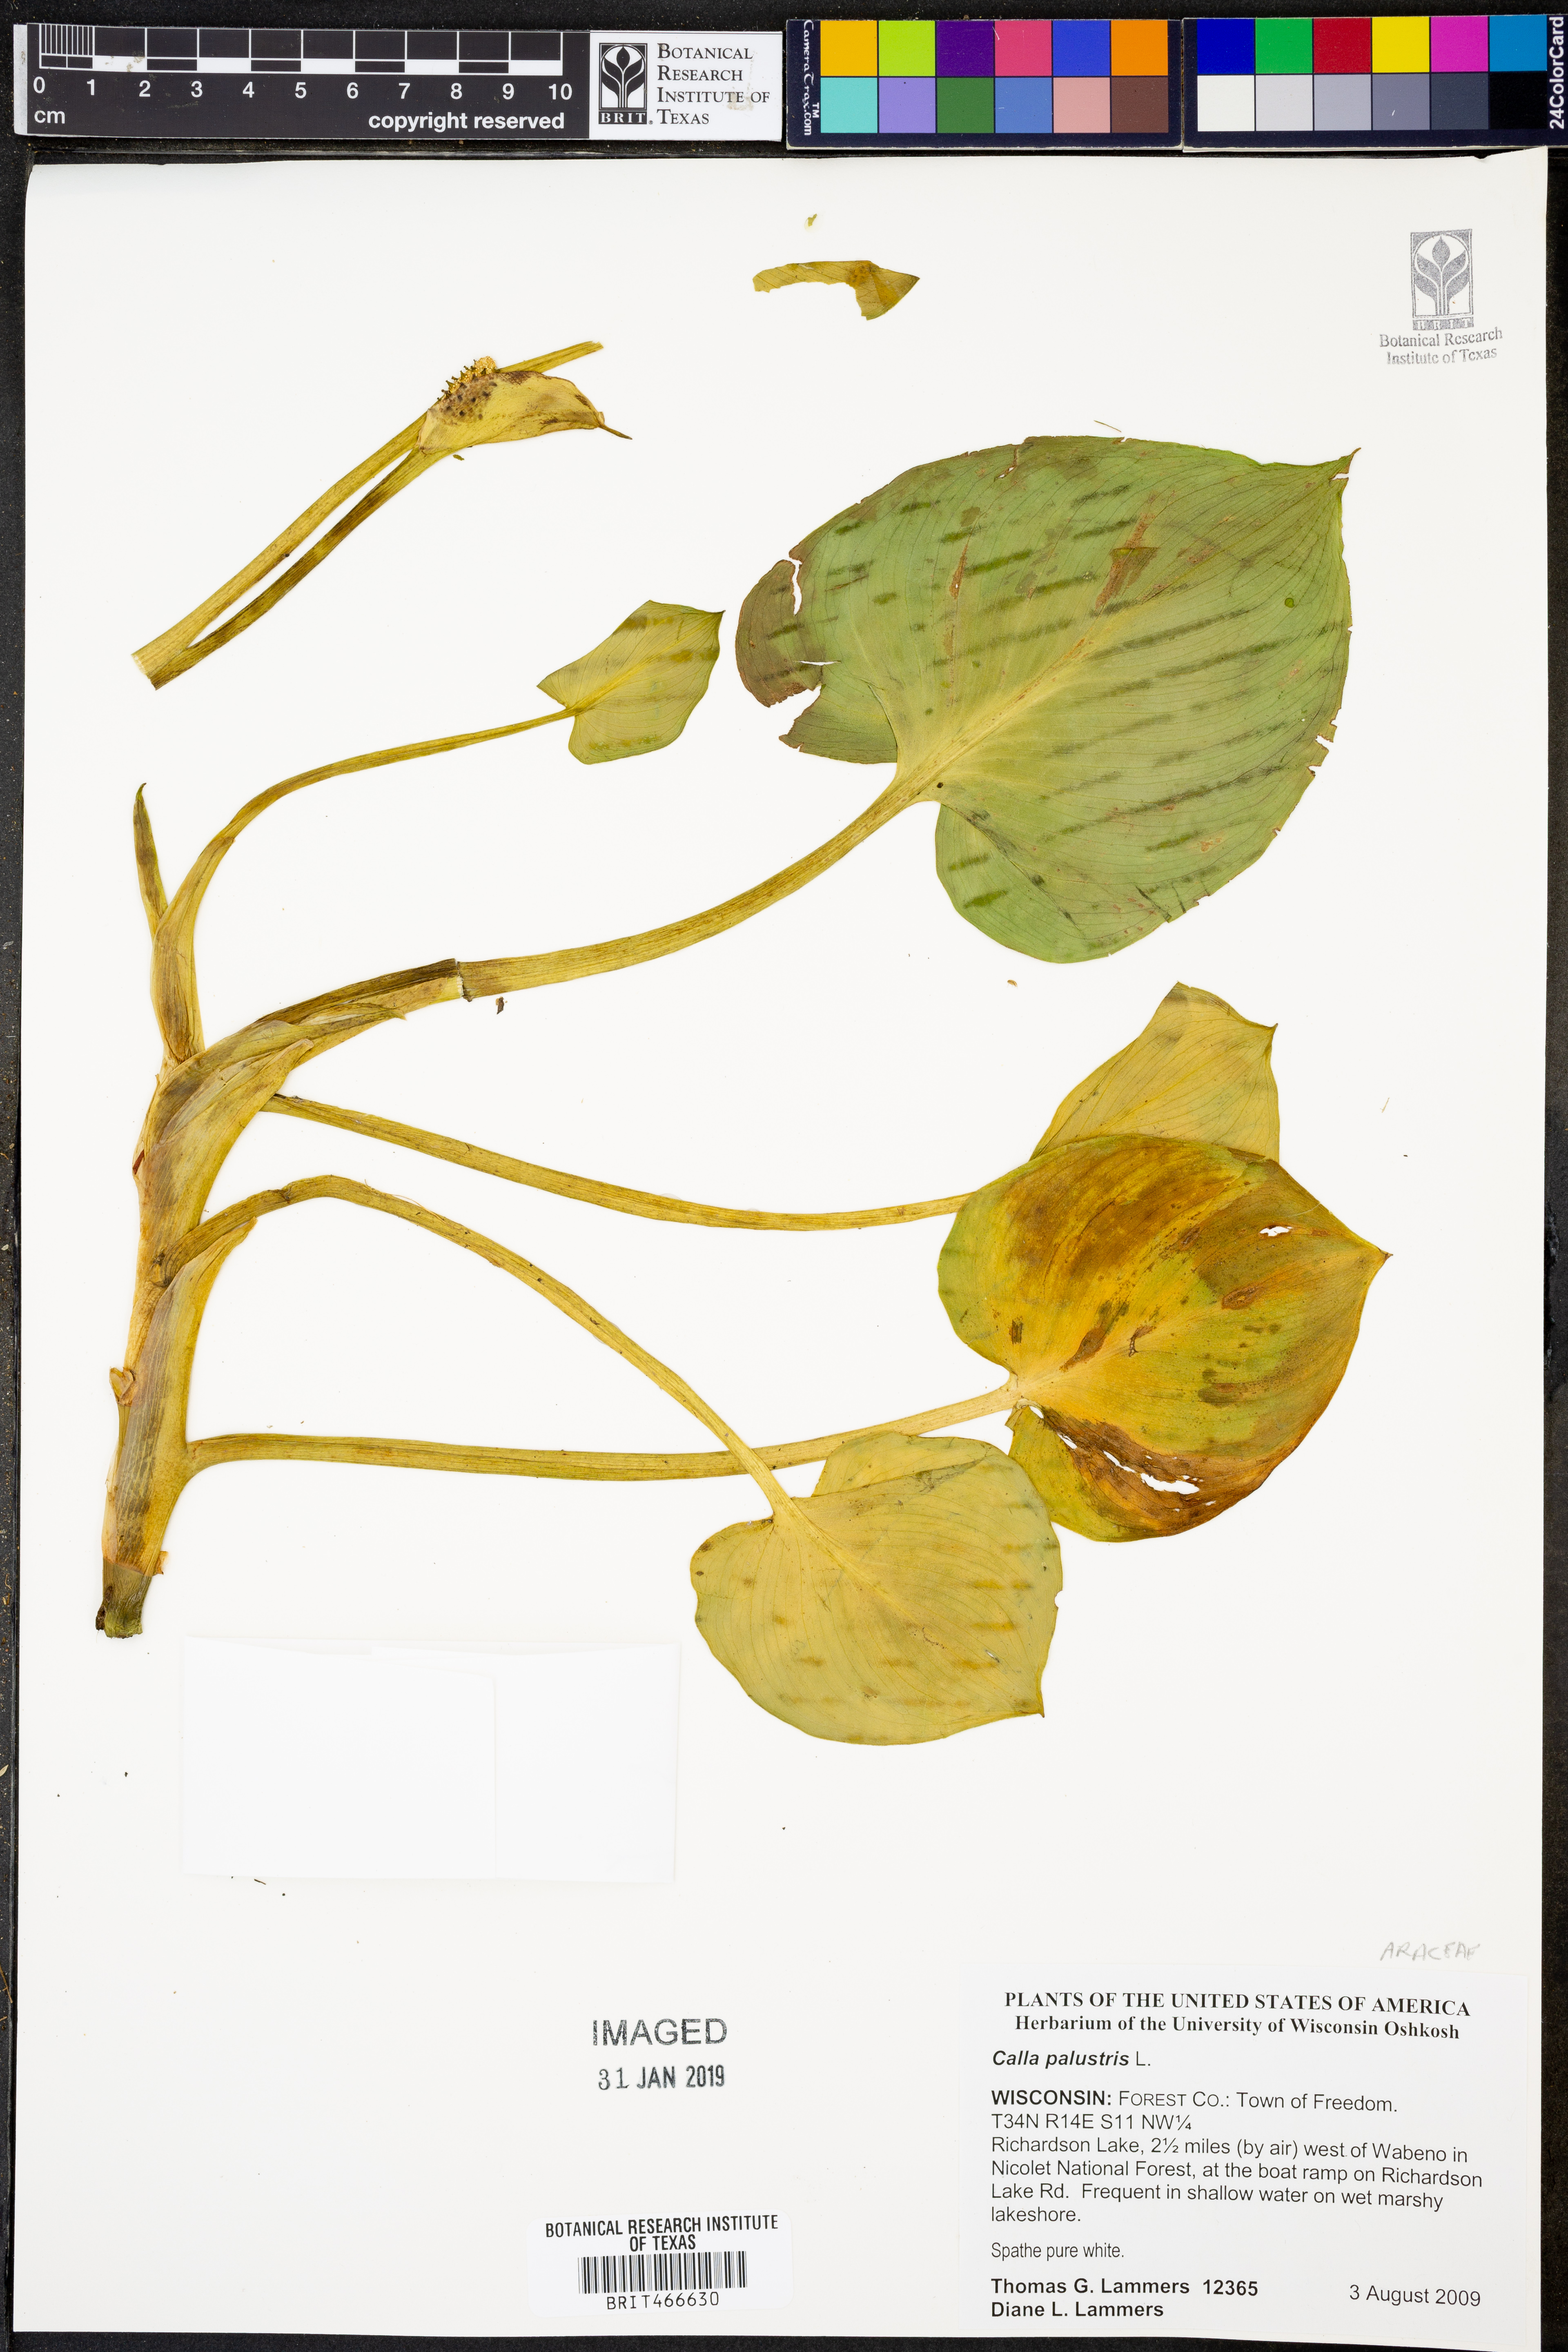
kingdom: Plantae
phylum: Tracheophyta
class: Liliopsida
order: Alismatales
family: Araceae
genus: Calla
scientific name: Calla palustris
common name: Bog arum
